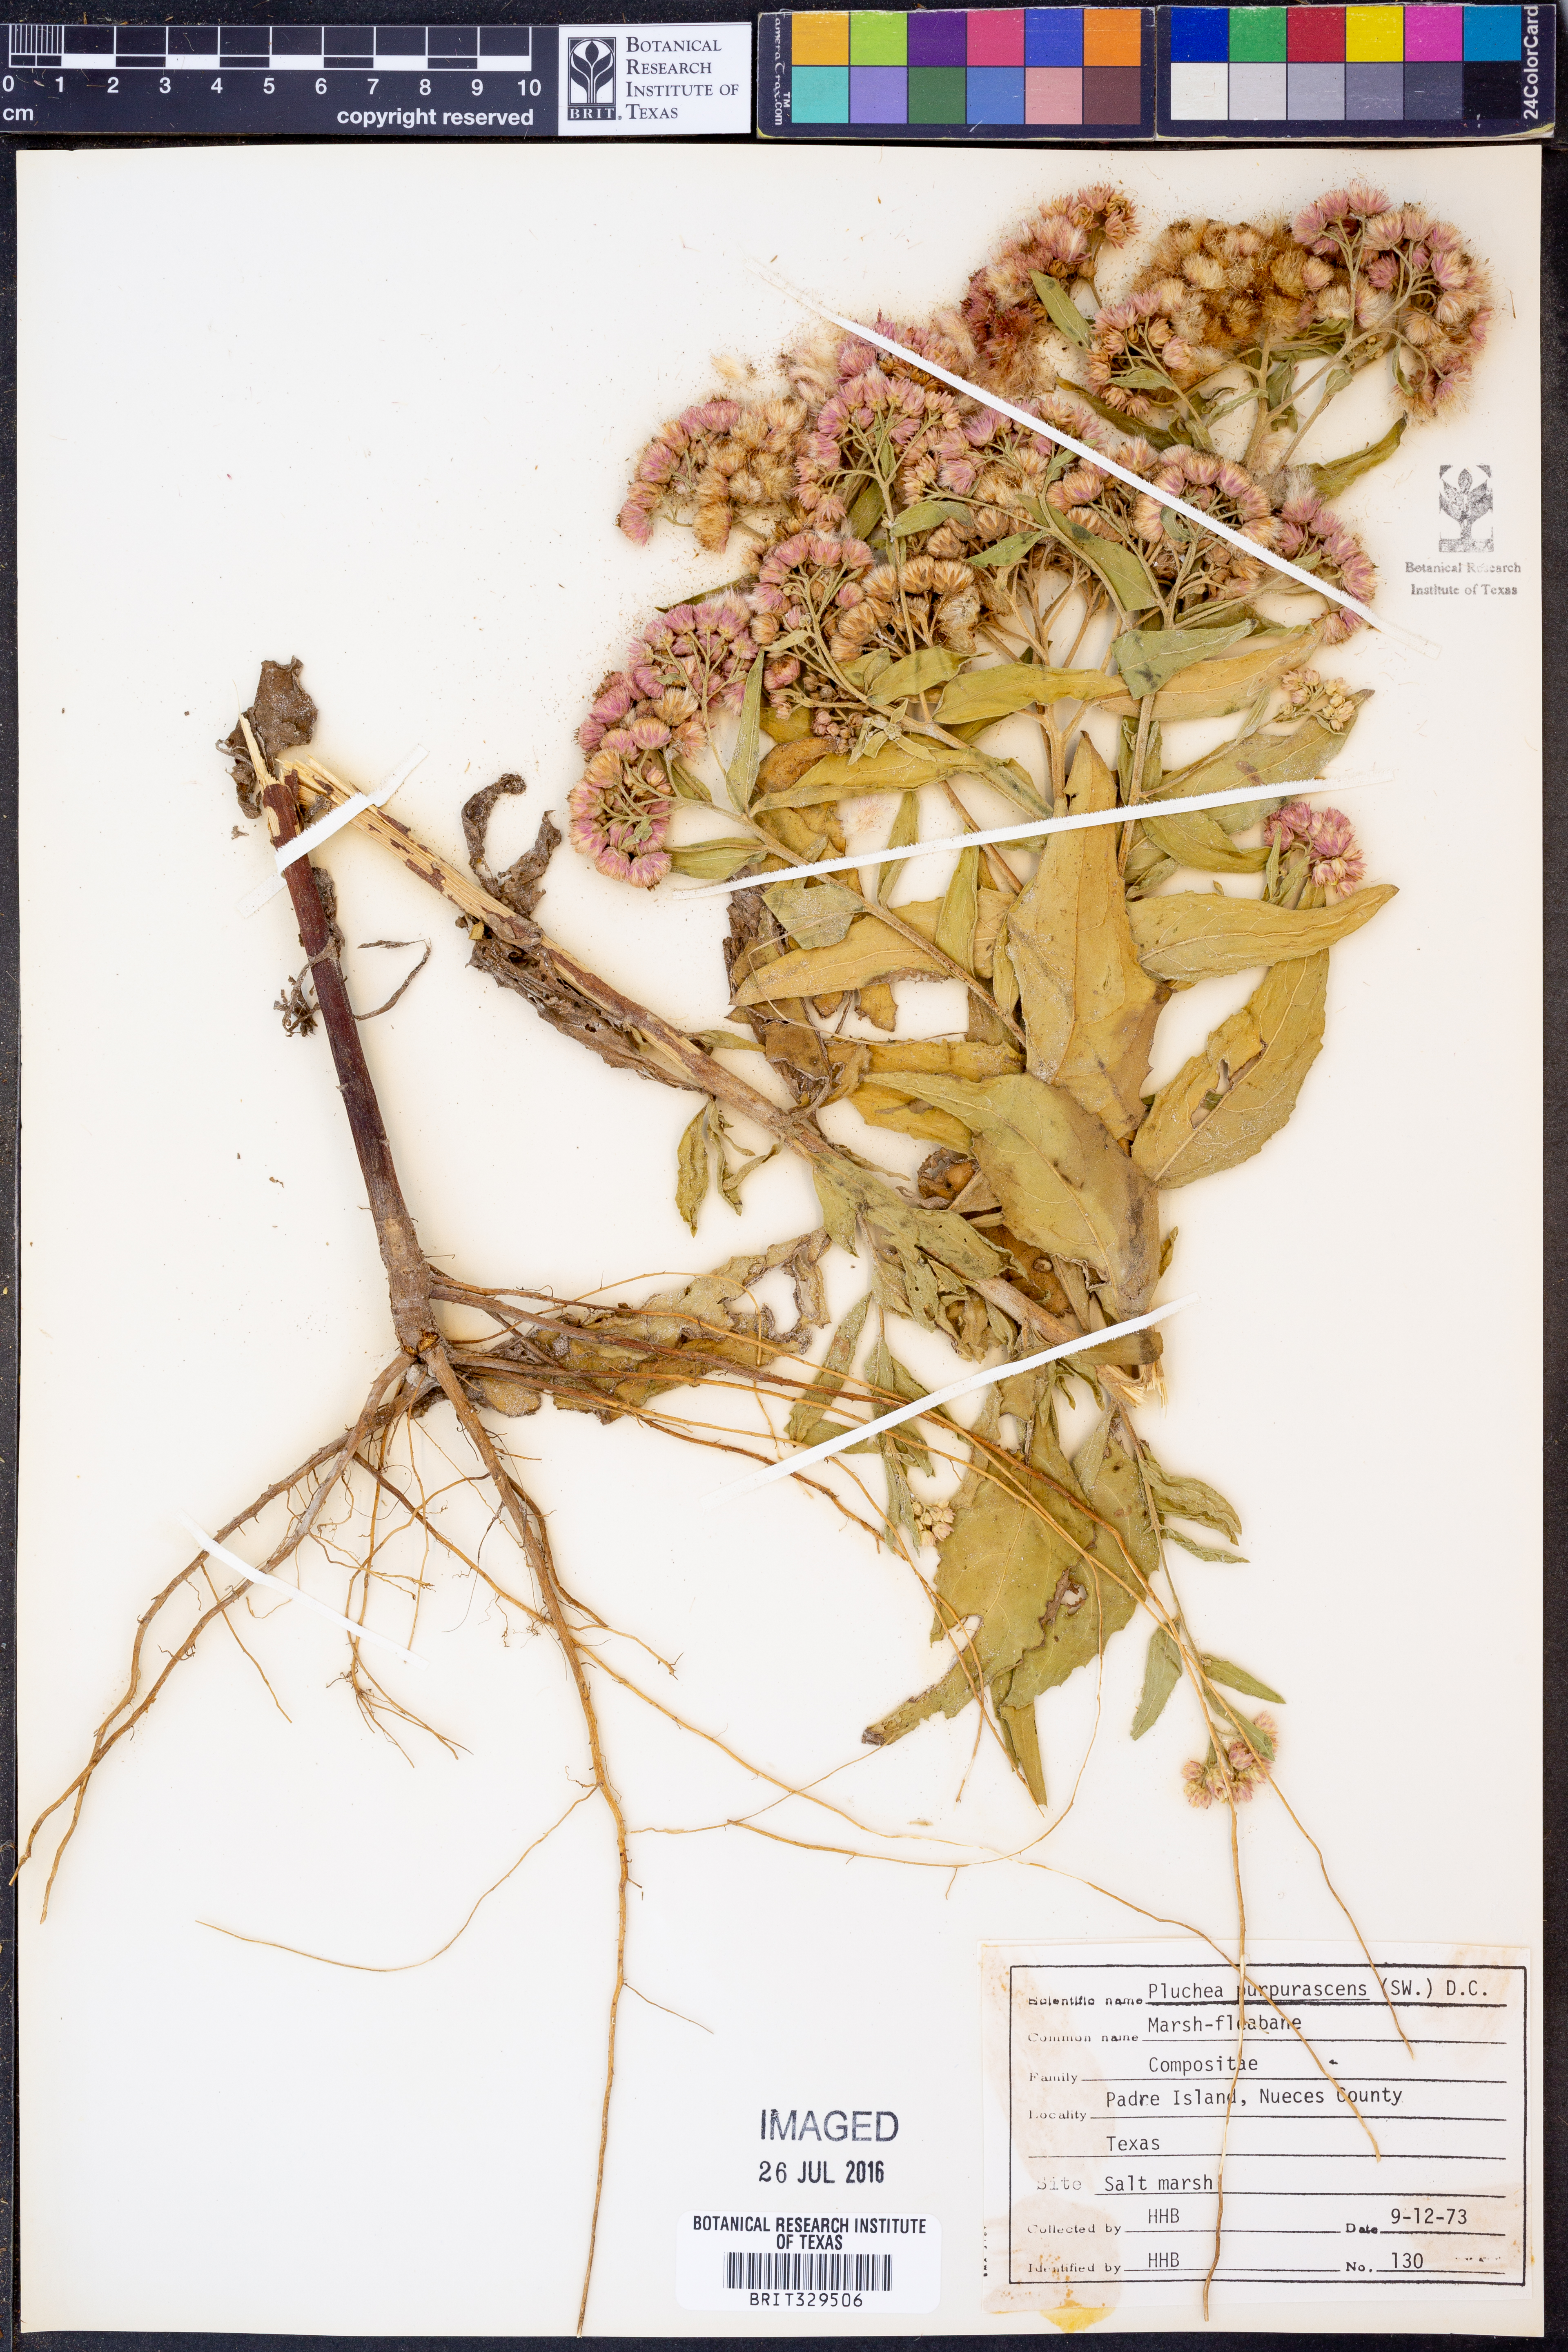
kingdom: Plantae
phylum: Tracheophyta
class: Magnoliopsida
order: Asterales
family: Asteraceae
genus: Pluchea
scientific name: Pluchea odorata
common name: Saltmarsh fleabane
